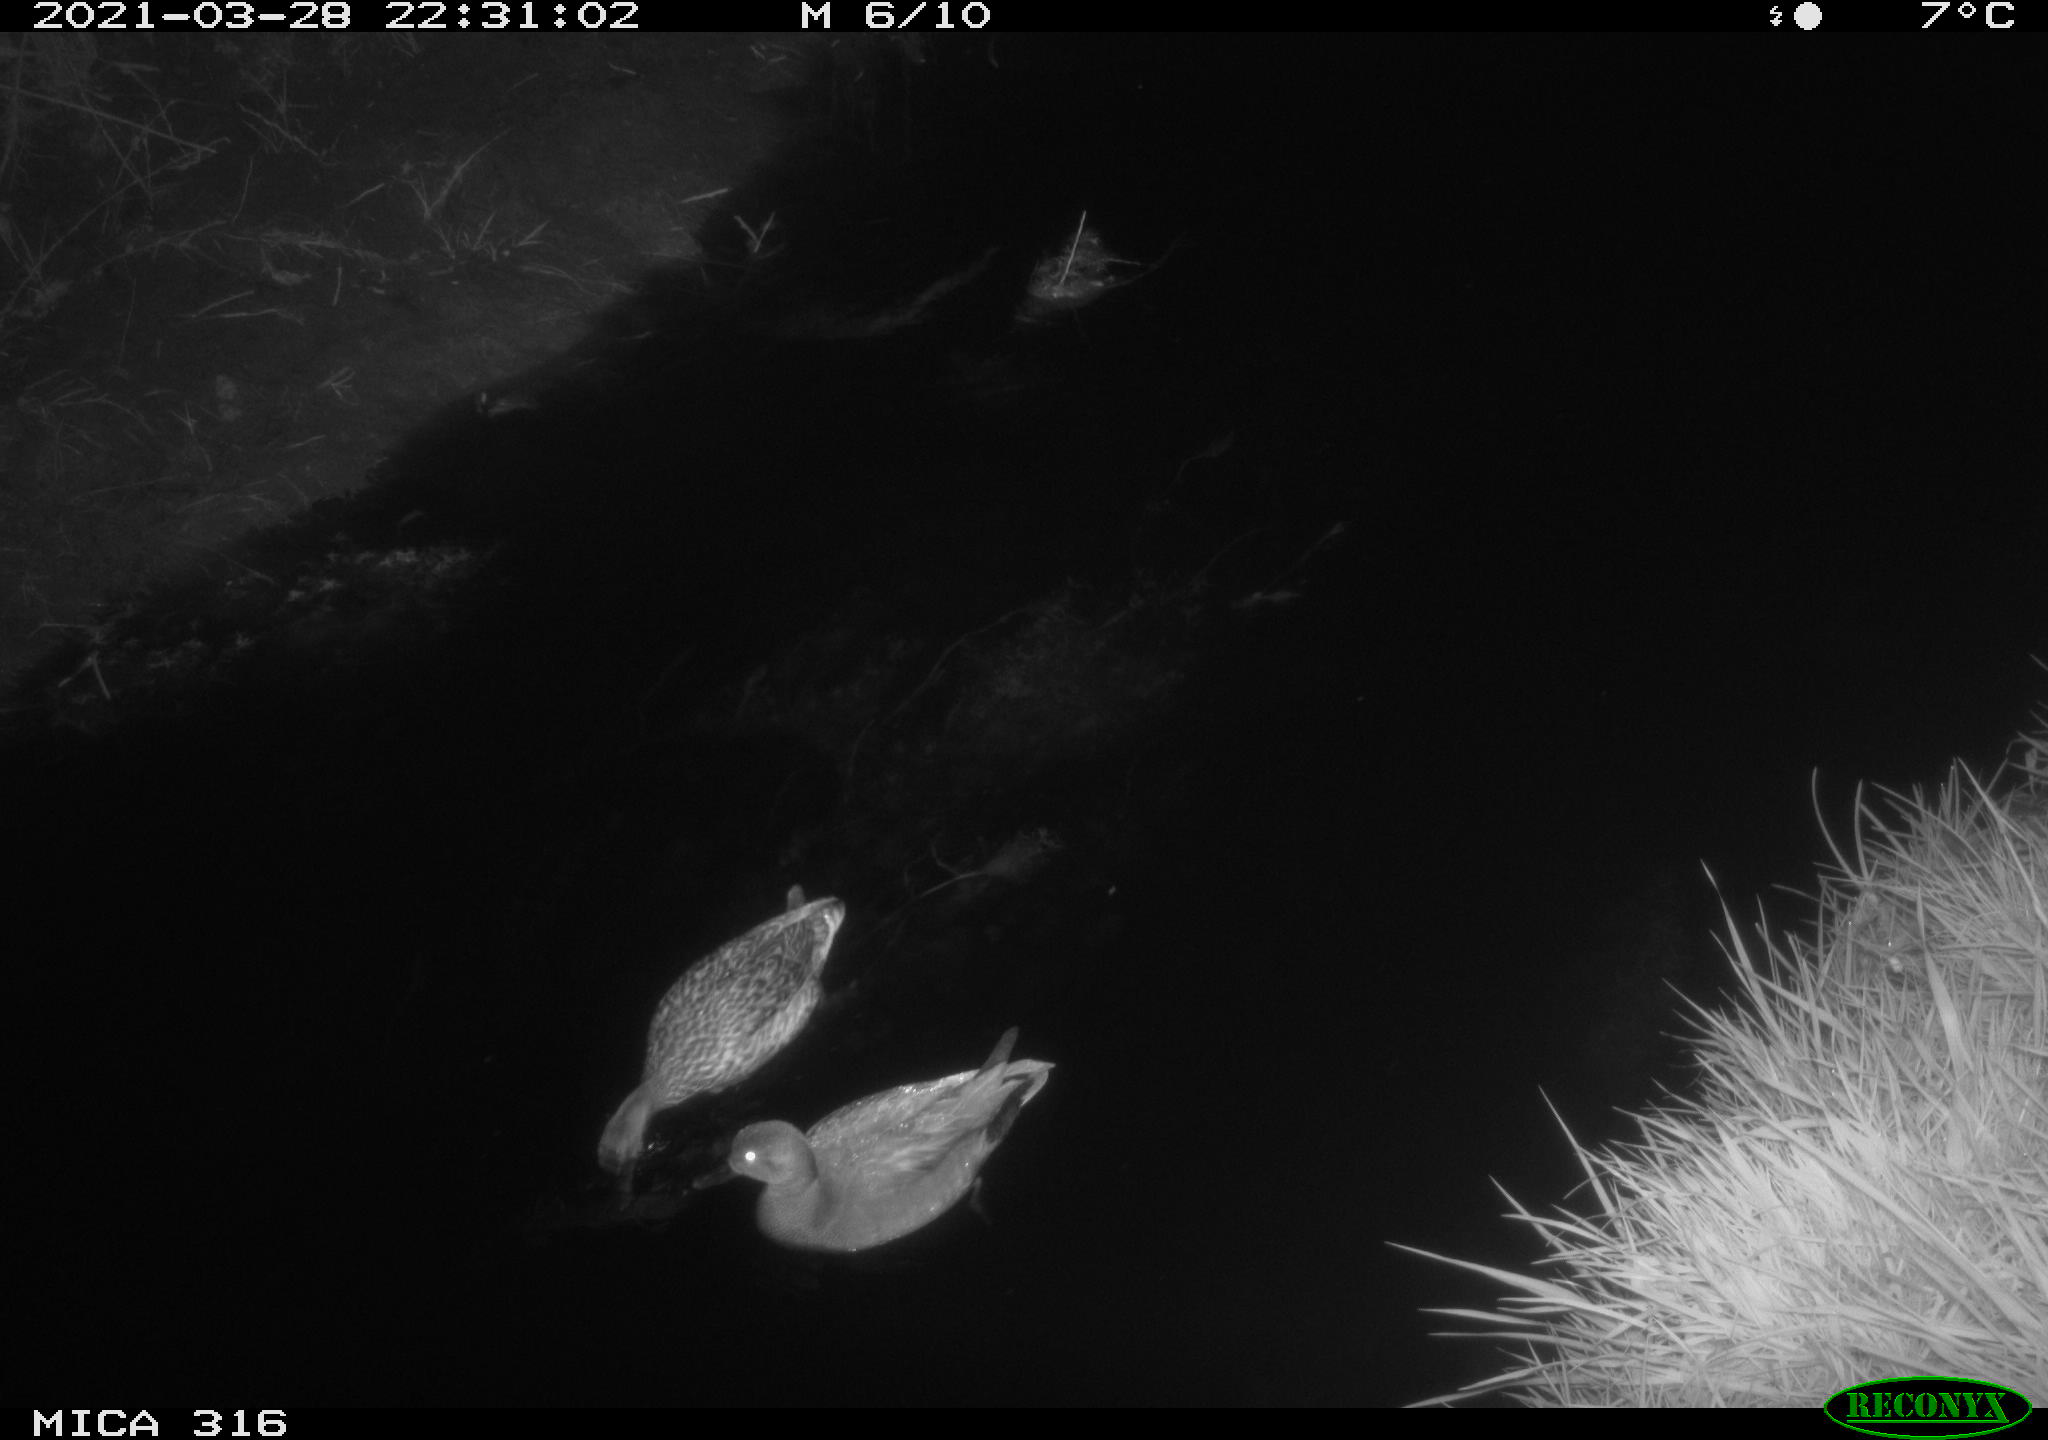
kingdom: Animalia
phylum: Chordata
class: Aves
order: Anseriformes
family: Anatidae
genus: Mareca
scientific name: Mareca strepera
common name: Gadwall
